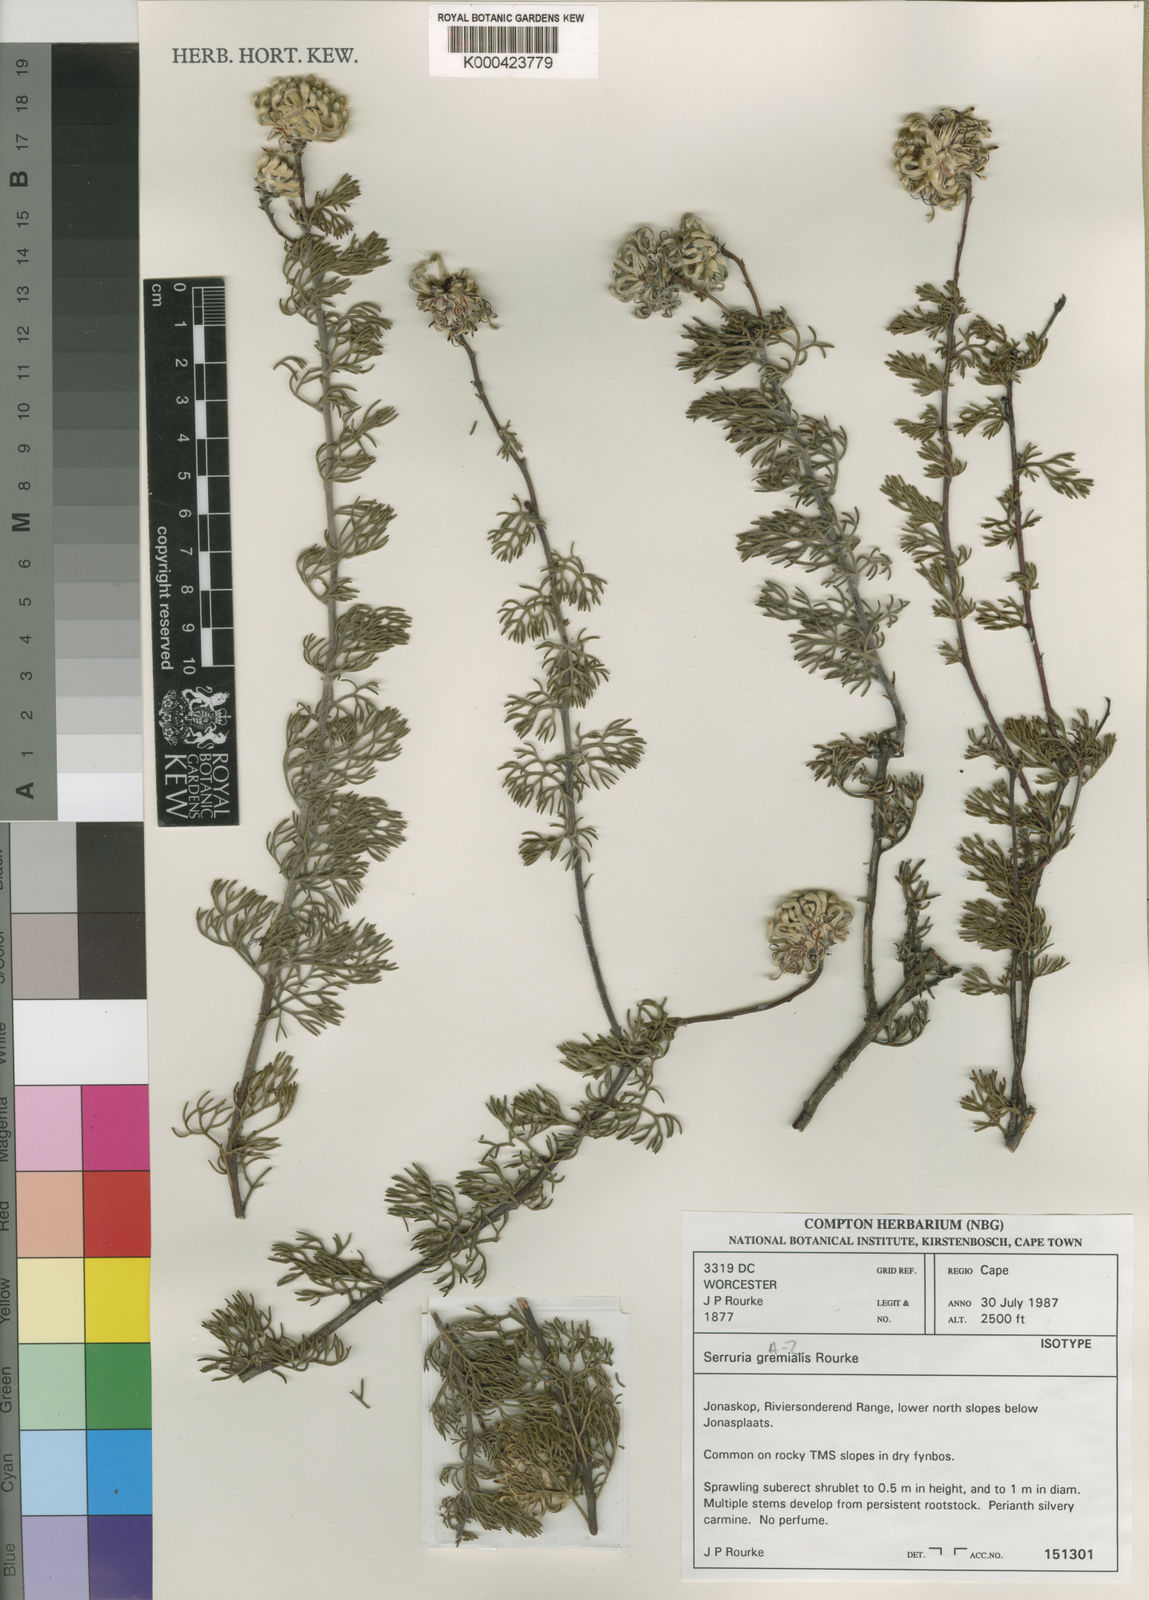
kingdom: Plantae
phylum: Tracheophyta
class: Magnoliopsida
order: Proteales
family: Proteaceae
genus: Serruria
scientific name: Serruria gremialis
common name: Riviersonderend spiderhead
